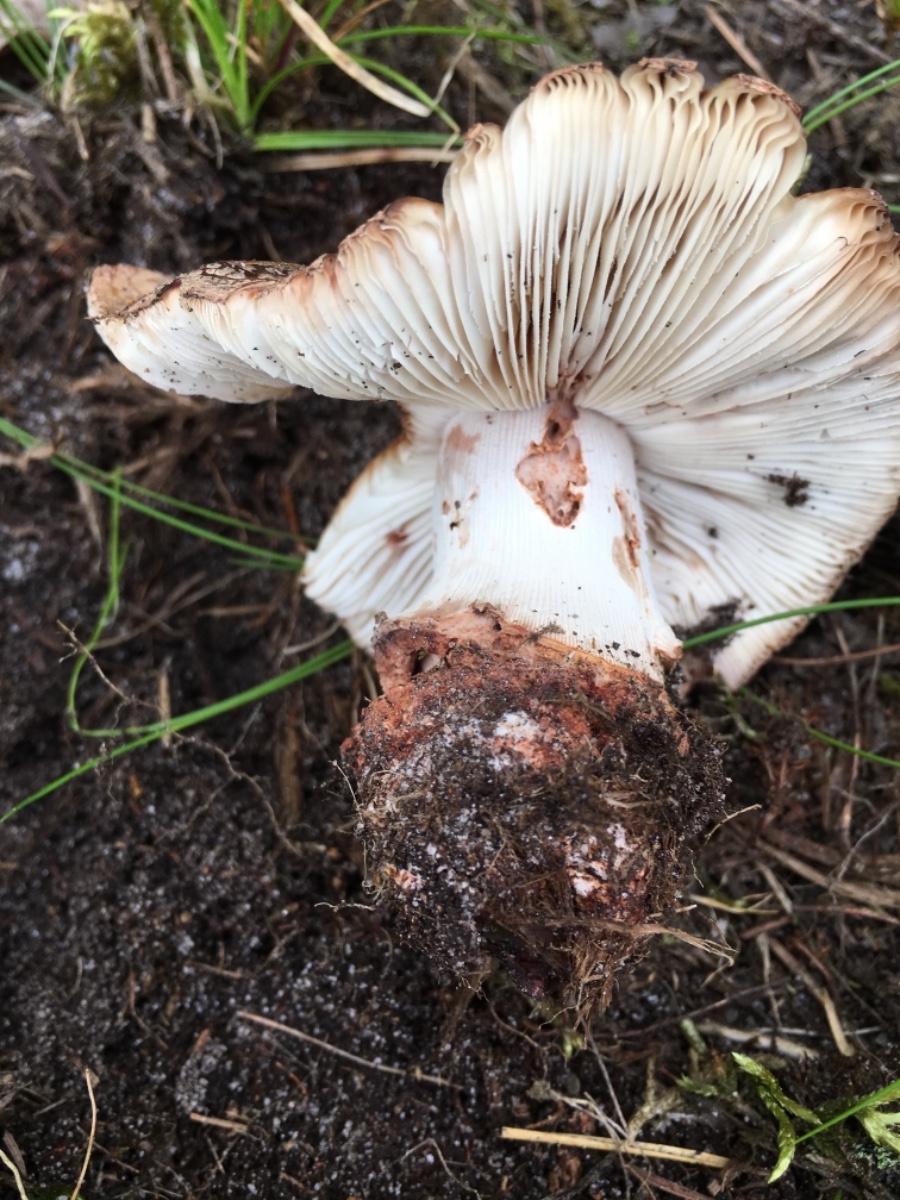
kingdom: Fungi
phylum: Basidiomycota
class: Agaricomycetes
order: Agaricales
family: Amanitaceae
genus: Amanita
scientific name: Amanita rubescens
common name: rødmende fluesvamp
